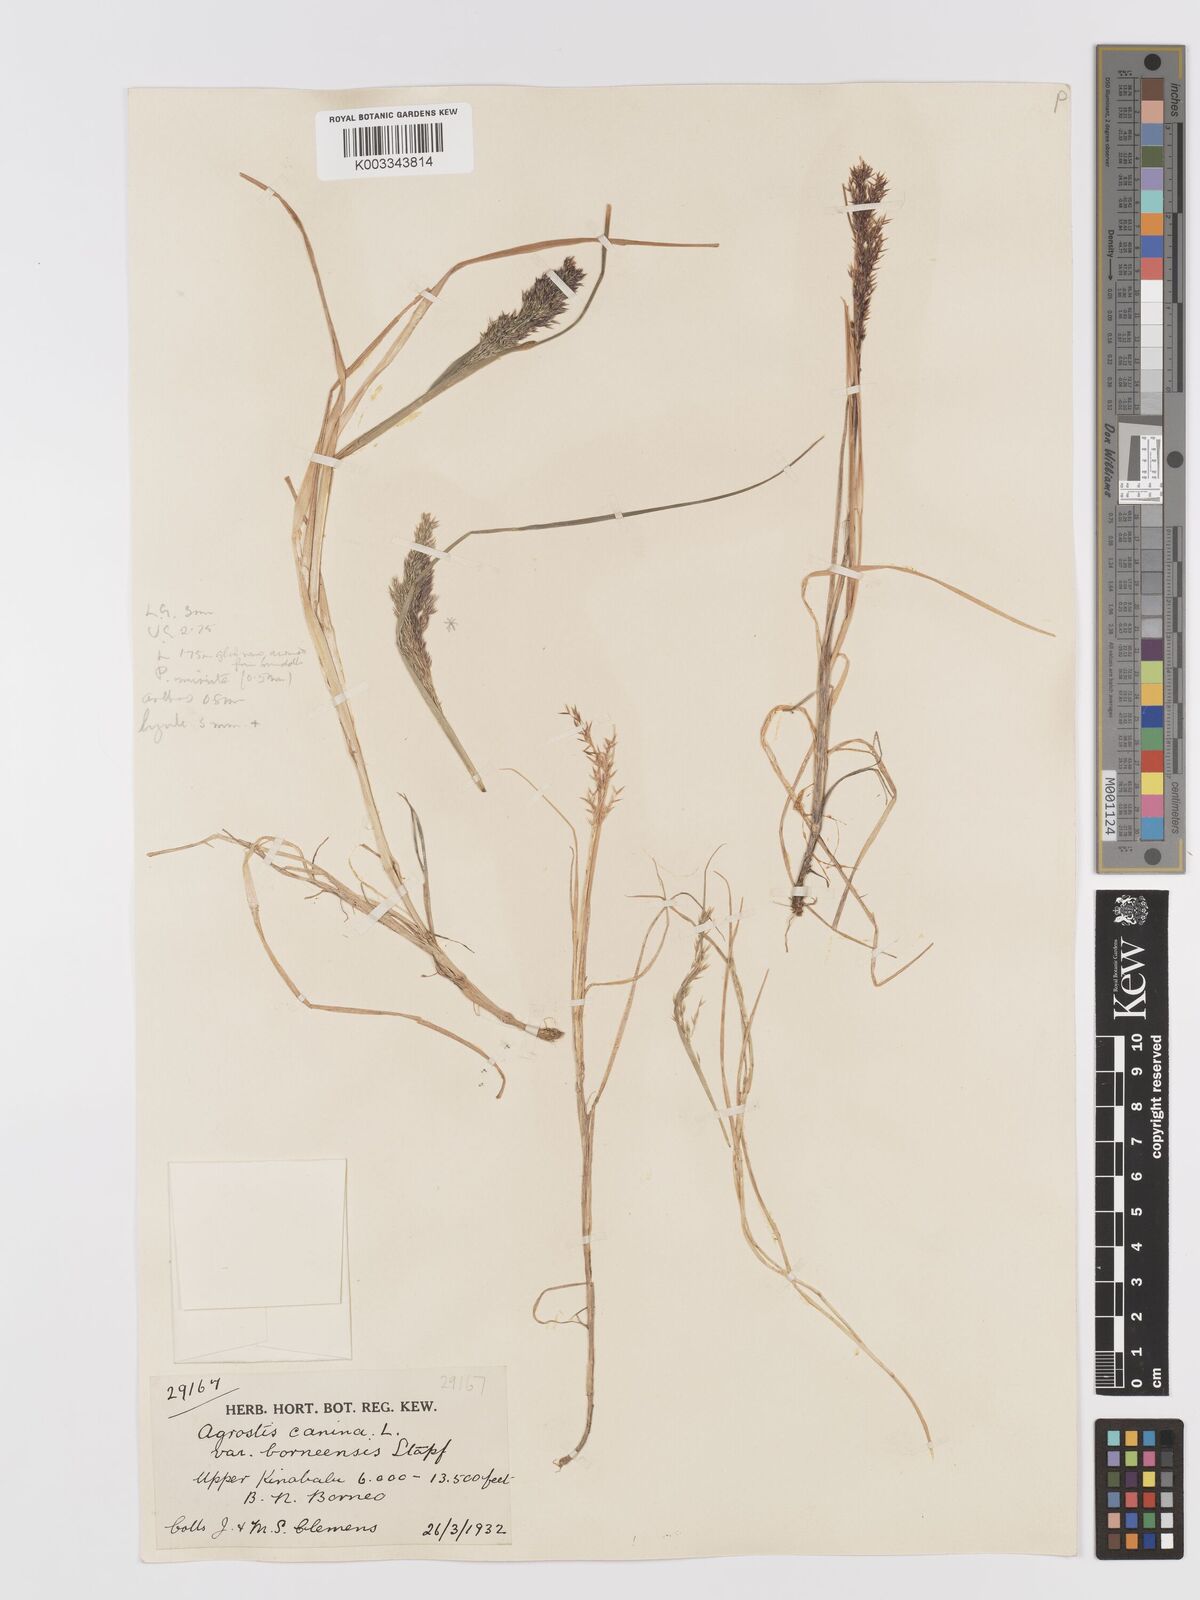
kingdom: Plantae
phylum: Tracheophyta
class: Liliopsida
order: Poales
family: Poaceae
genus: Agrostis
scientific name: Agrostis infirma
